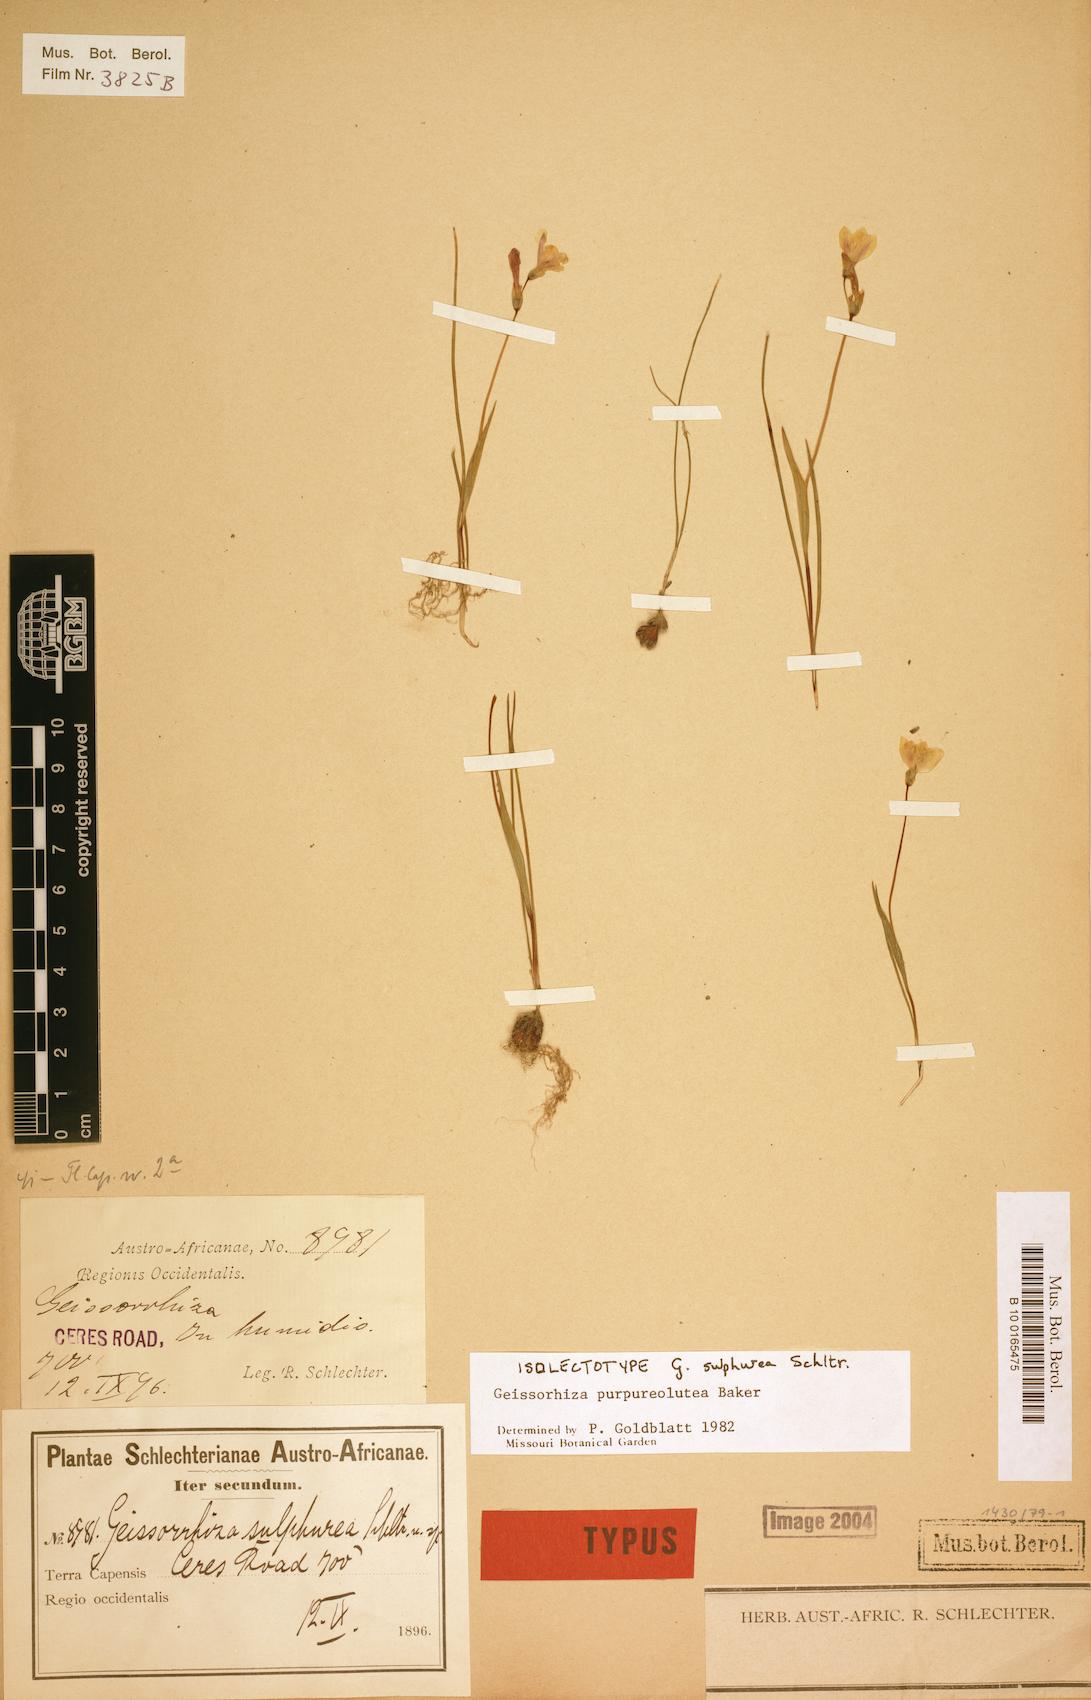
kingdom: Plantae
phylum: Tracheophyta
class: Liliopsida
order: Asparagales
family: Iridaceae
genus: Geissorhiza
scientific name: Geissorhiza purpureolutea
